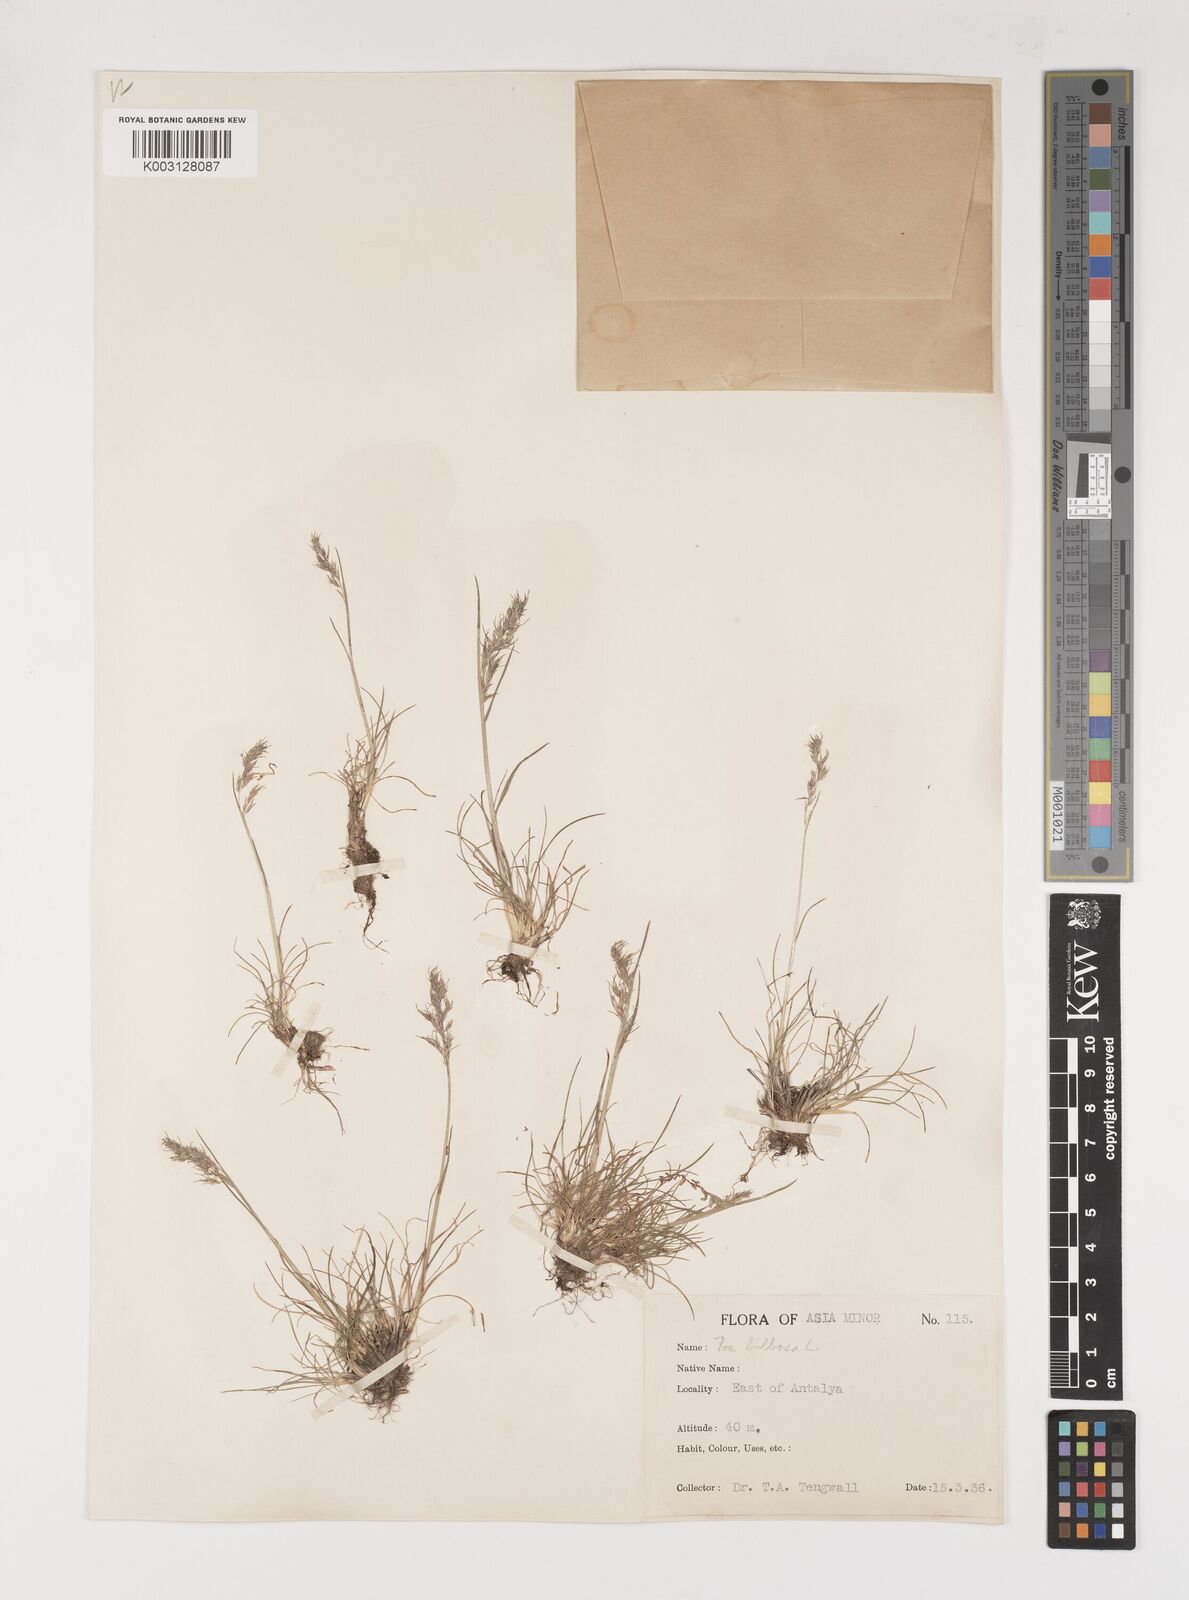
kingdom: Plantae
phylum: Tracheophyta
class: Liliopsida
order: Poales
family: Poaceae
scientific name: Poaceae
